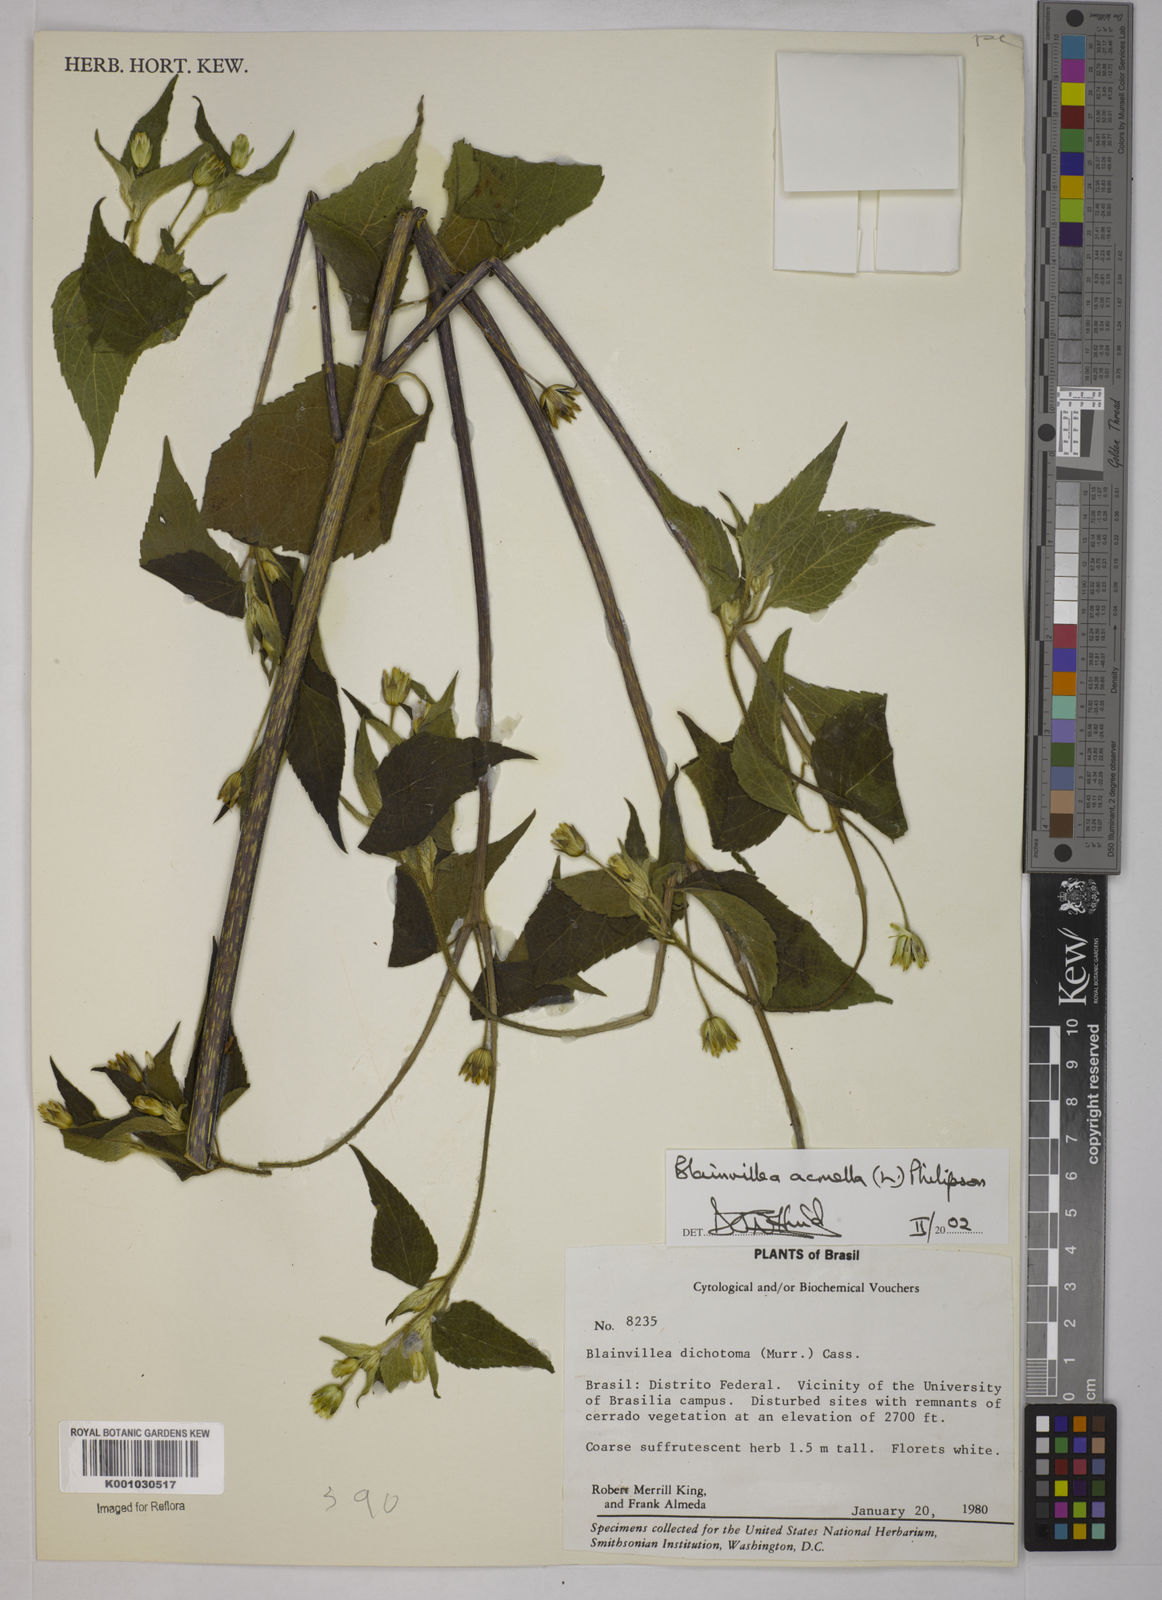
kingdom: Plantae
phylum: Tracheophyta
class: Magnoliopsida
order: Asterales
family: Asteraceae
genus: Blainvillea
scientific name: Blainvillea acmella
